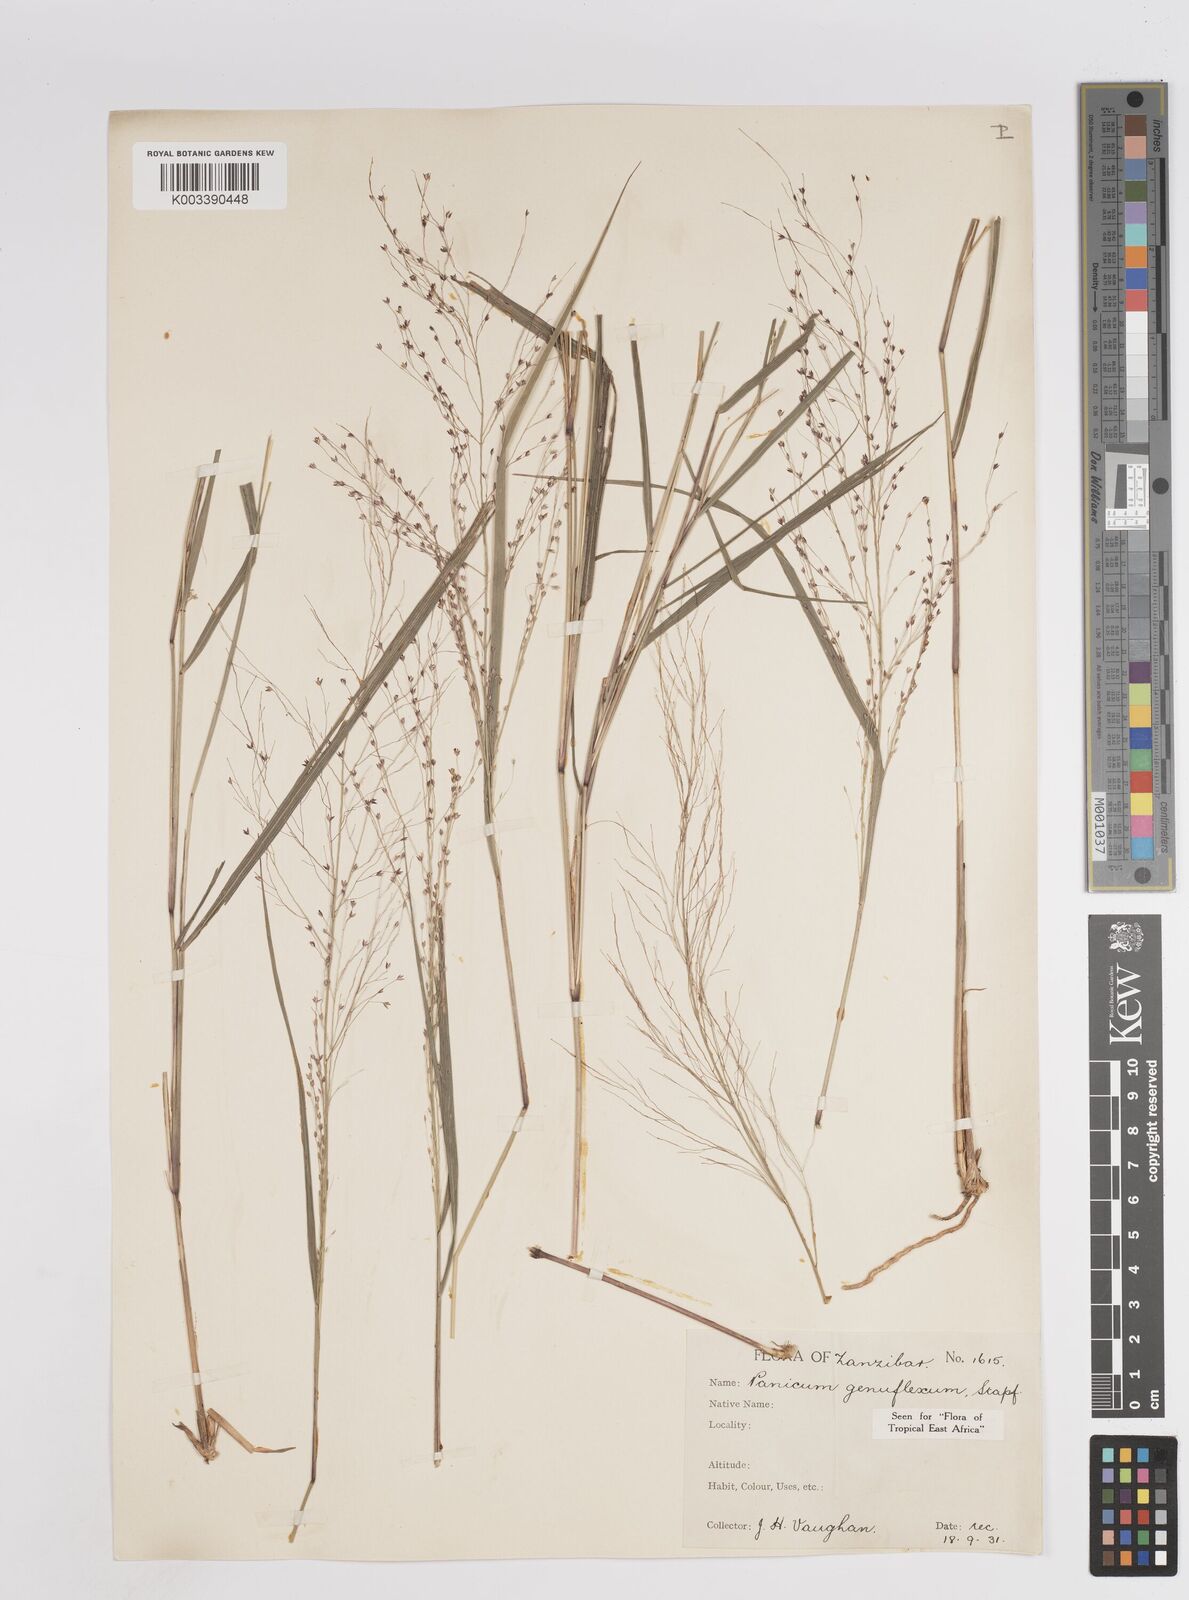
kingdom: Plantae
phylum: Tracheophyta
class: Liliopsida
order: Poales
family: Poaceae
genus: Panicum
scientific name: Panicum genuflexum
